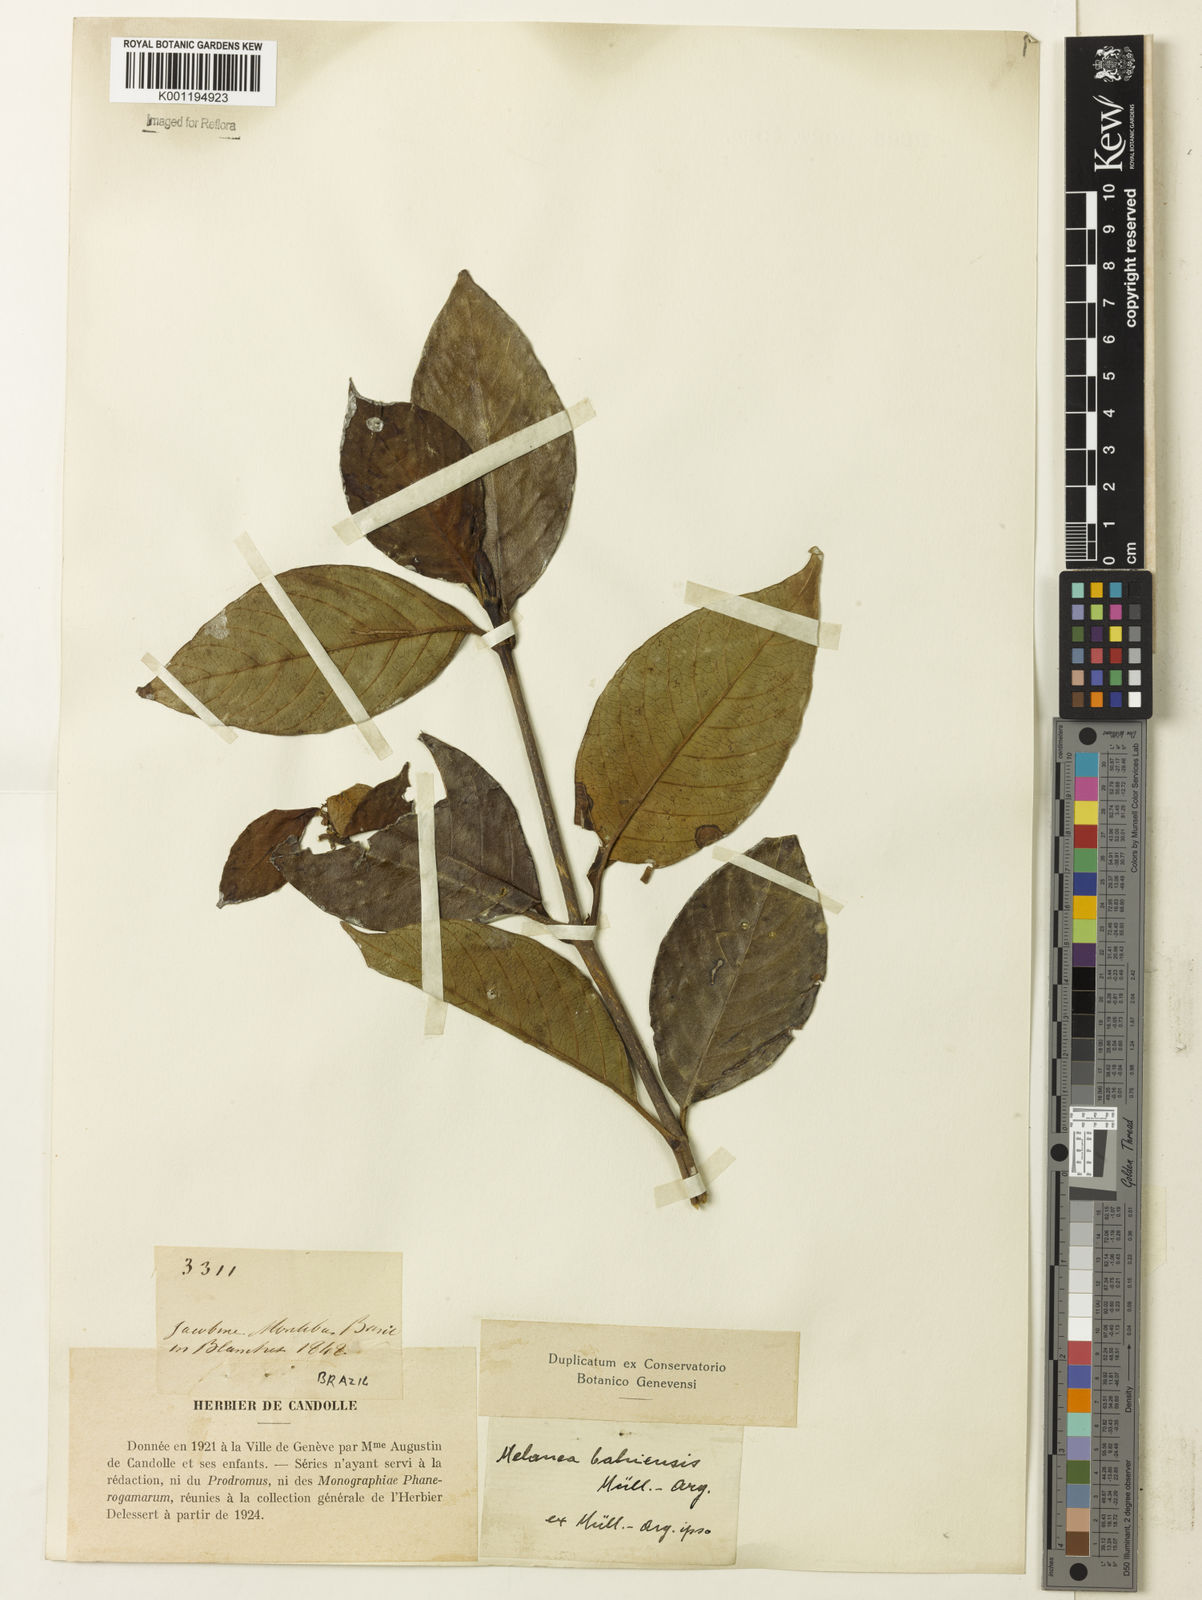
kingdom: Plantae
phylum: Tracheophyta
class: Magnoliopsida
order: Gentianales
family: Rubiaceae
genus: Malanea
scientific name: Malanea glabra
